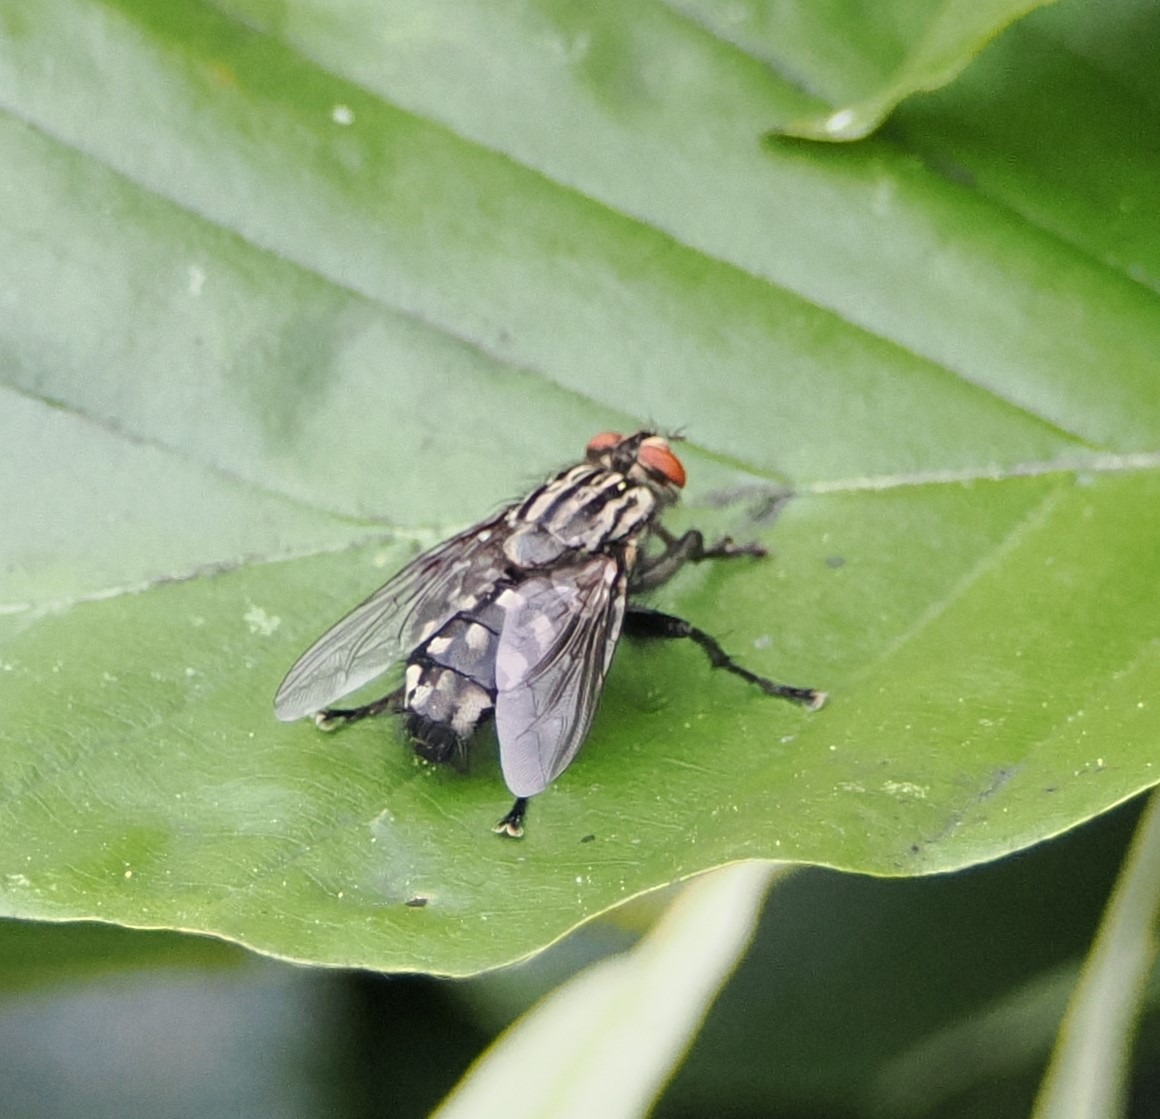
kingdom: Animalia
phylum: Arthropoda
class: Insecta
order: Diptera
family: Sarcophagidae
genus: Sarcophaga
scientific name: Sarcophaga
